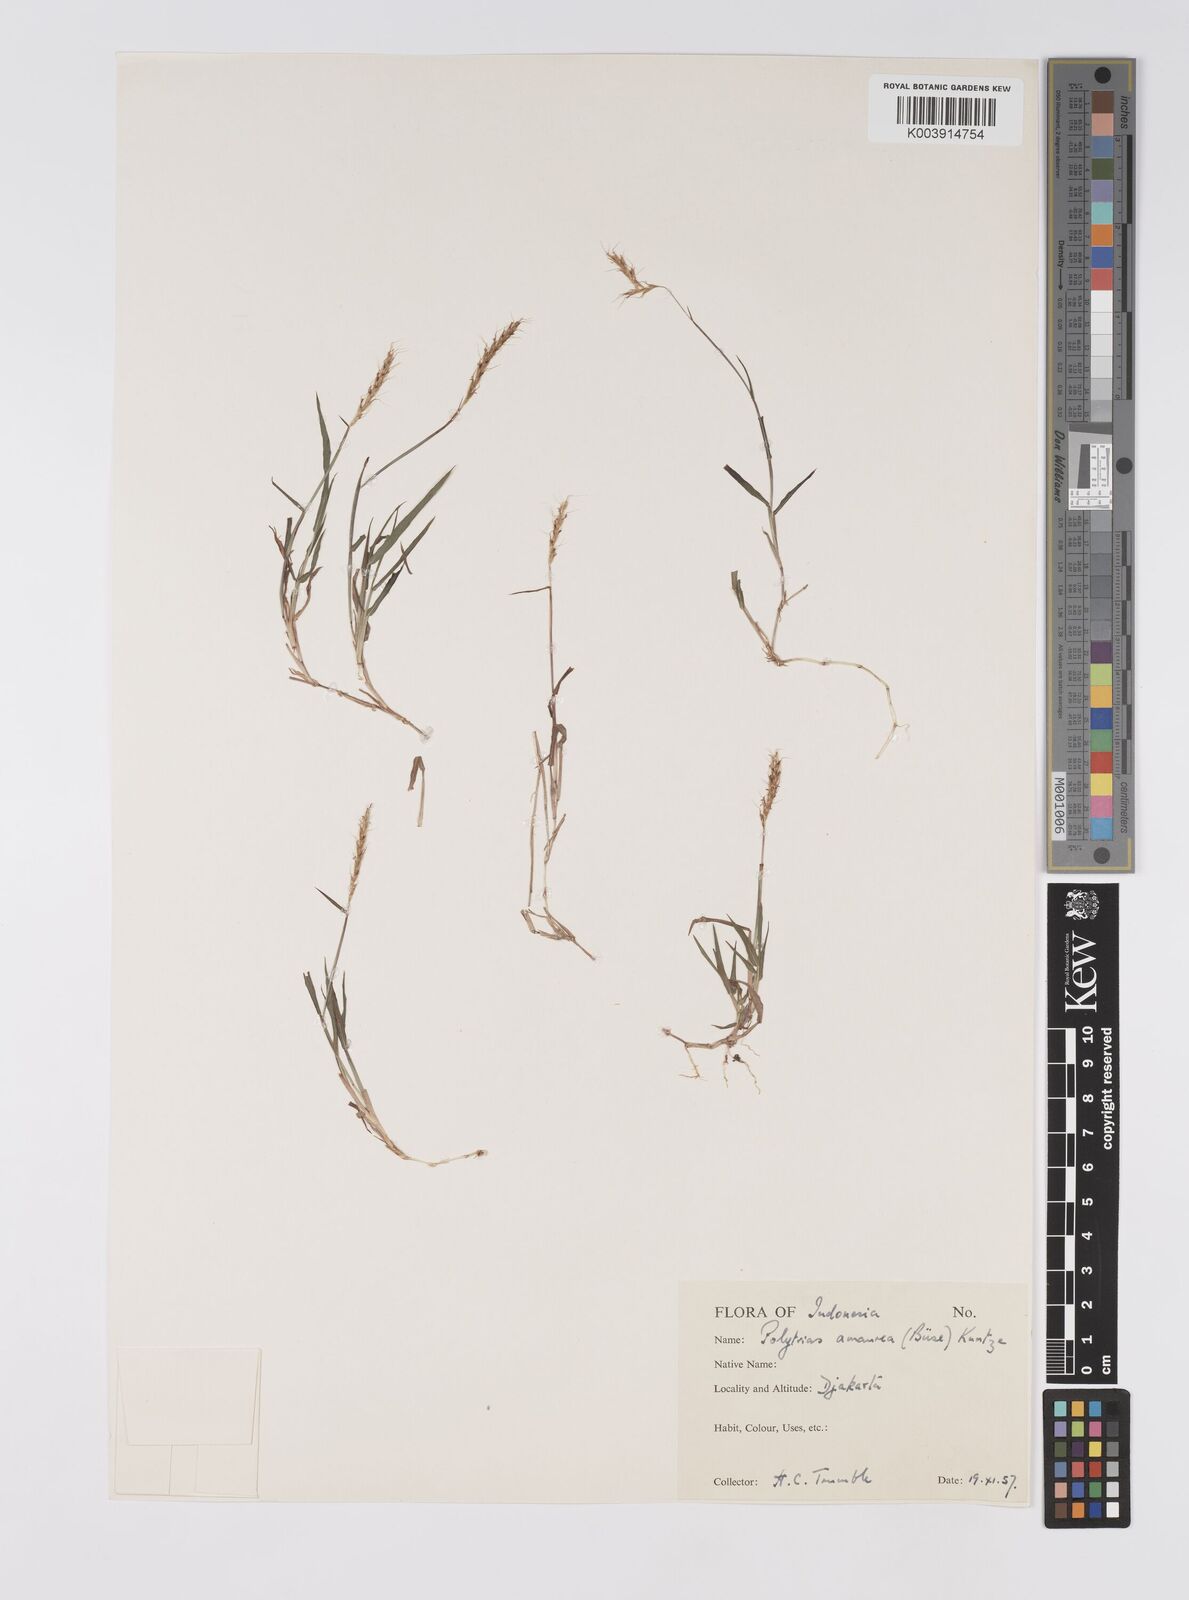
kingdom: Plantae
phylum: Tracheophyta
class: Liliopsida
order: Poales
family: Poaceae
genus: Polytrias
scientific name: Polytrias
